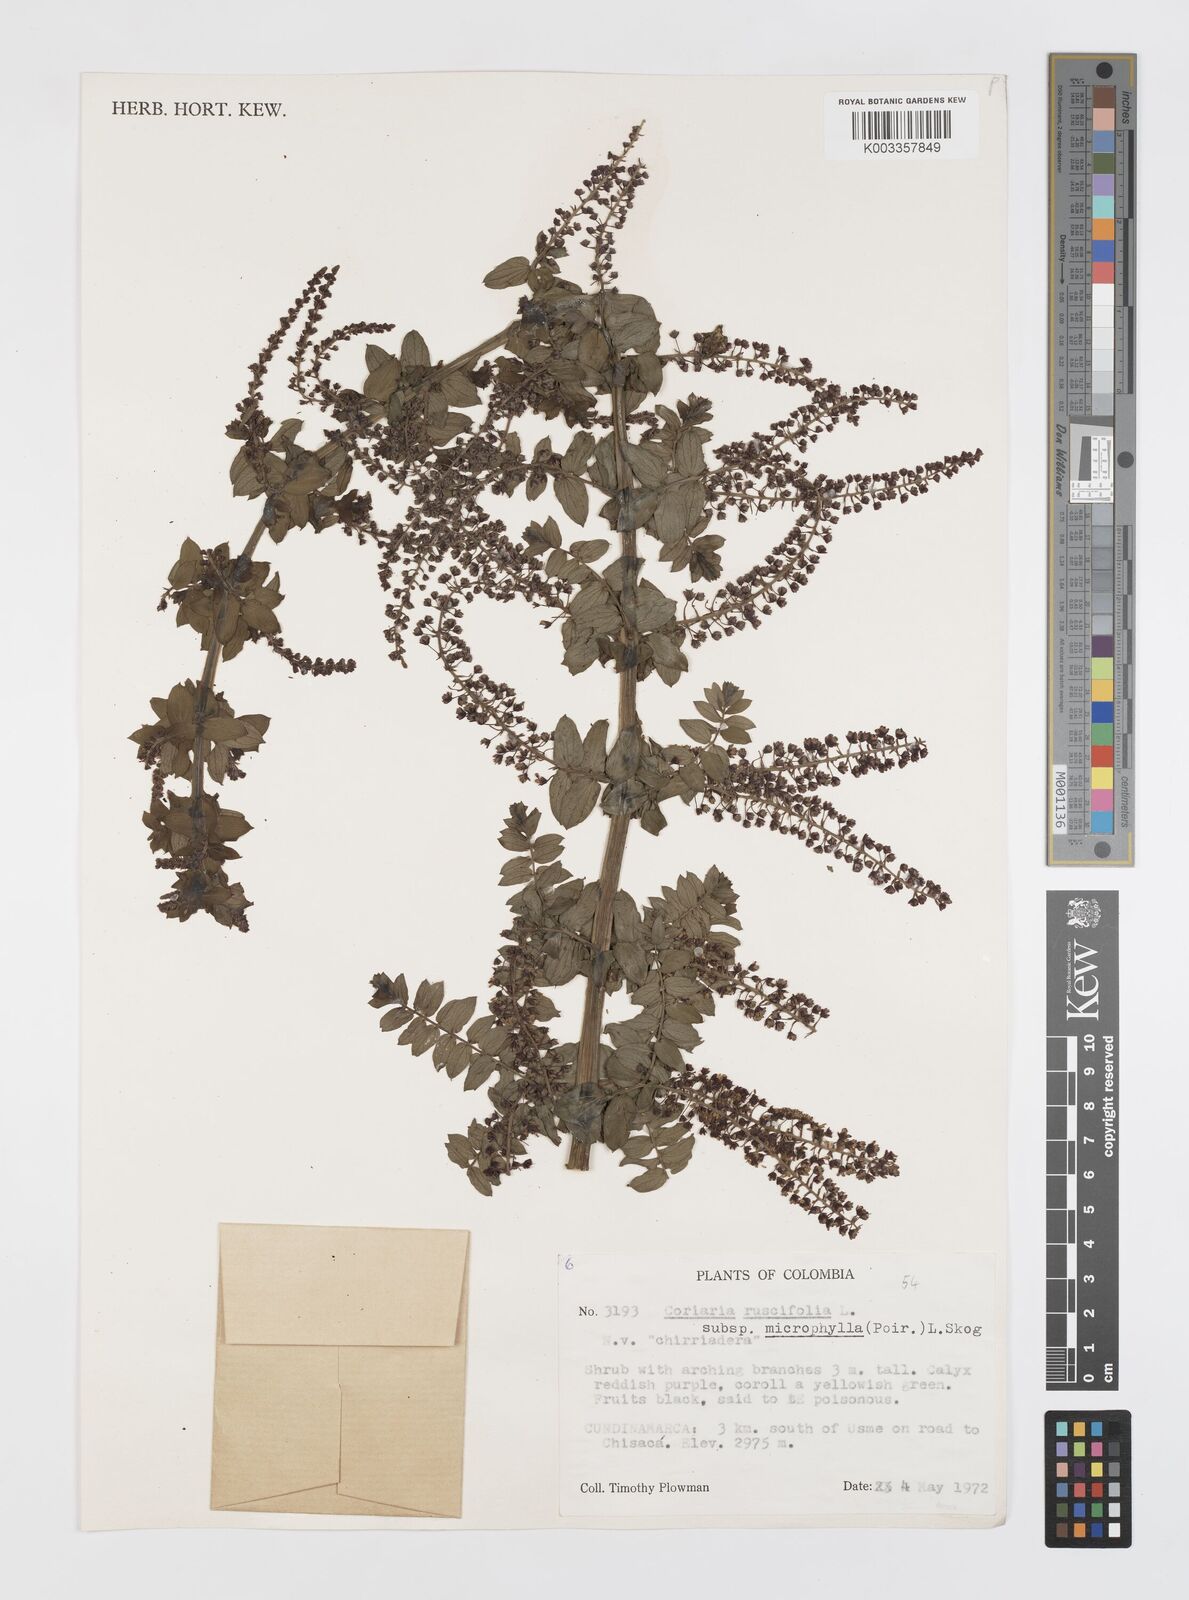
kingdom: Plantae
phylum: Tracheophyta
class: Magnoliopsida
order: Cucurbitales
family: Coriariaceae
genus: Coriaria
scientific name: Coriaria microphylla
